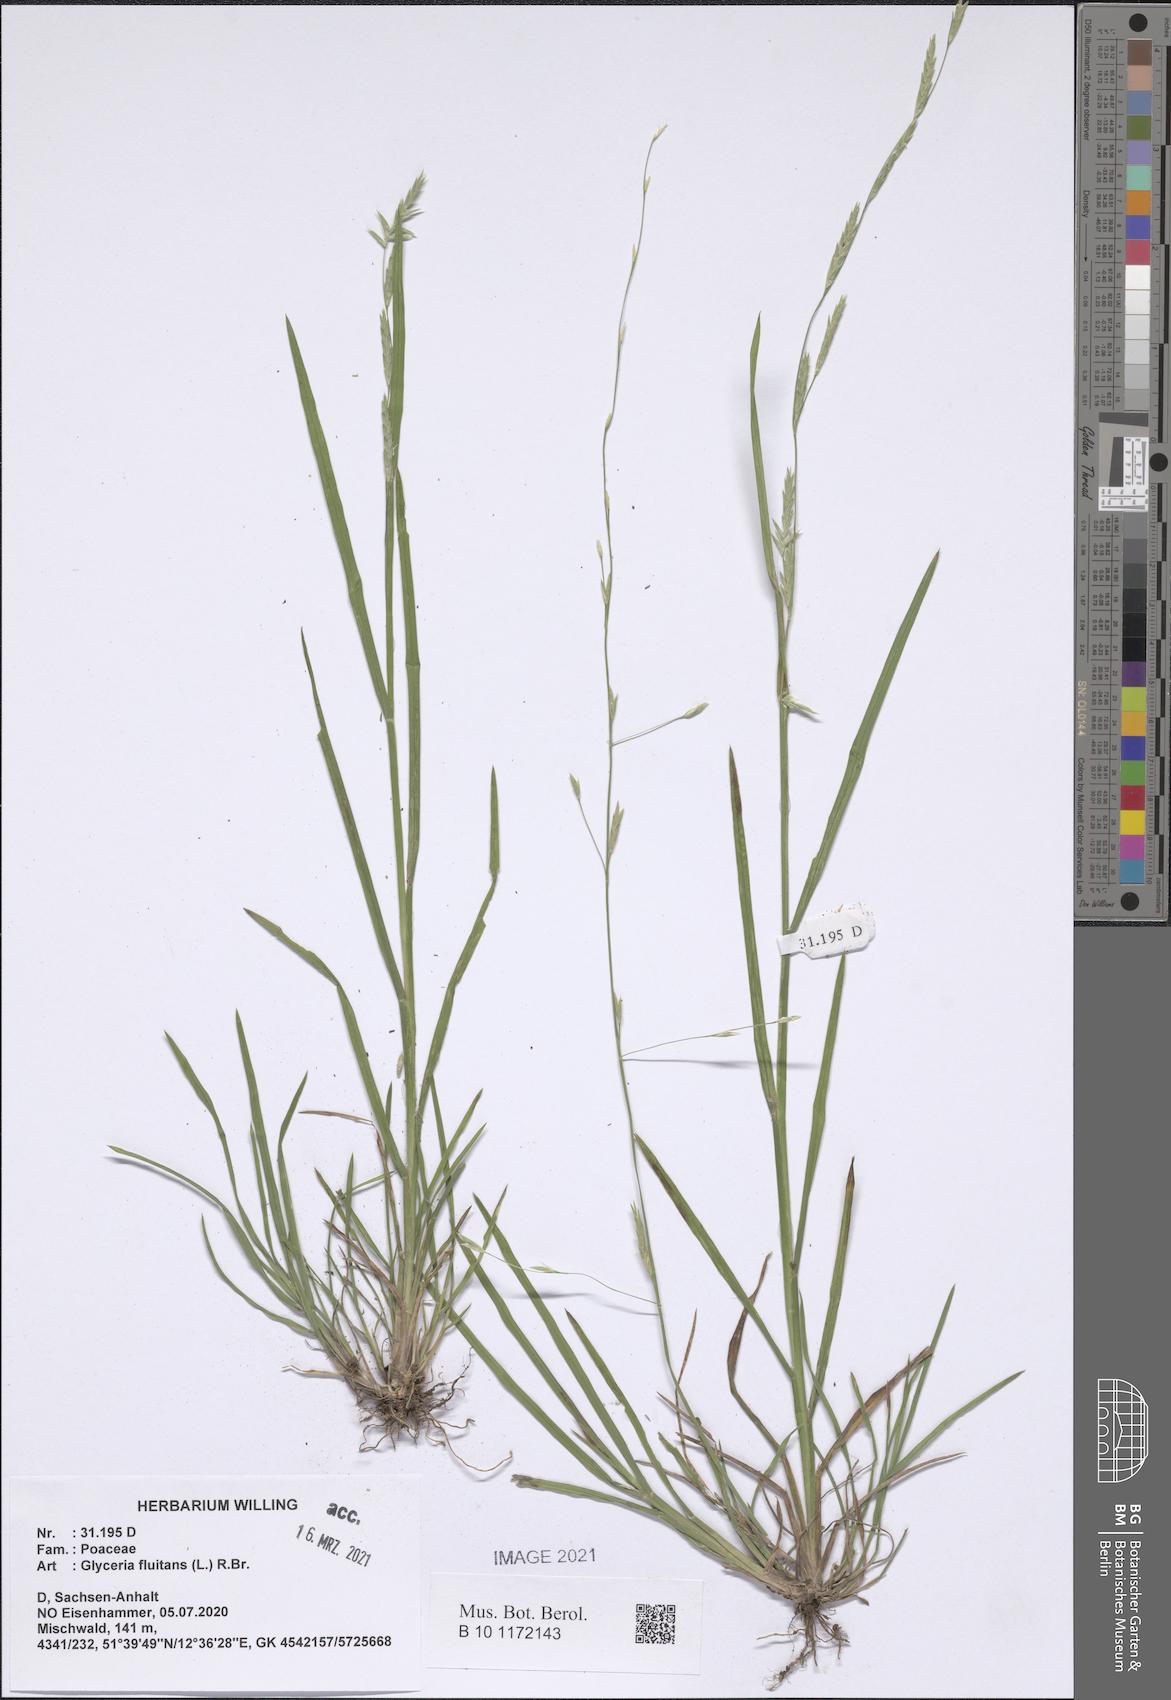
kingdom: Plantae
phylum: Tracheophyta
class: Liliopsida
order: Poales
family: Poaceae
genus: Glyceria
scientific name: Glyceria fluitans
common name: Floating sweet-grass
